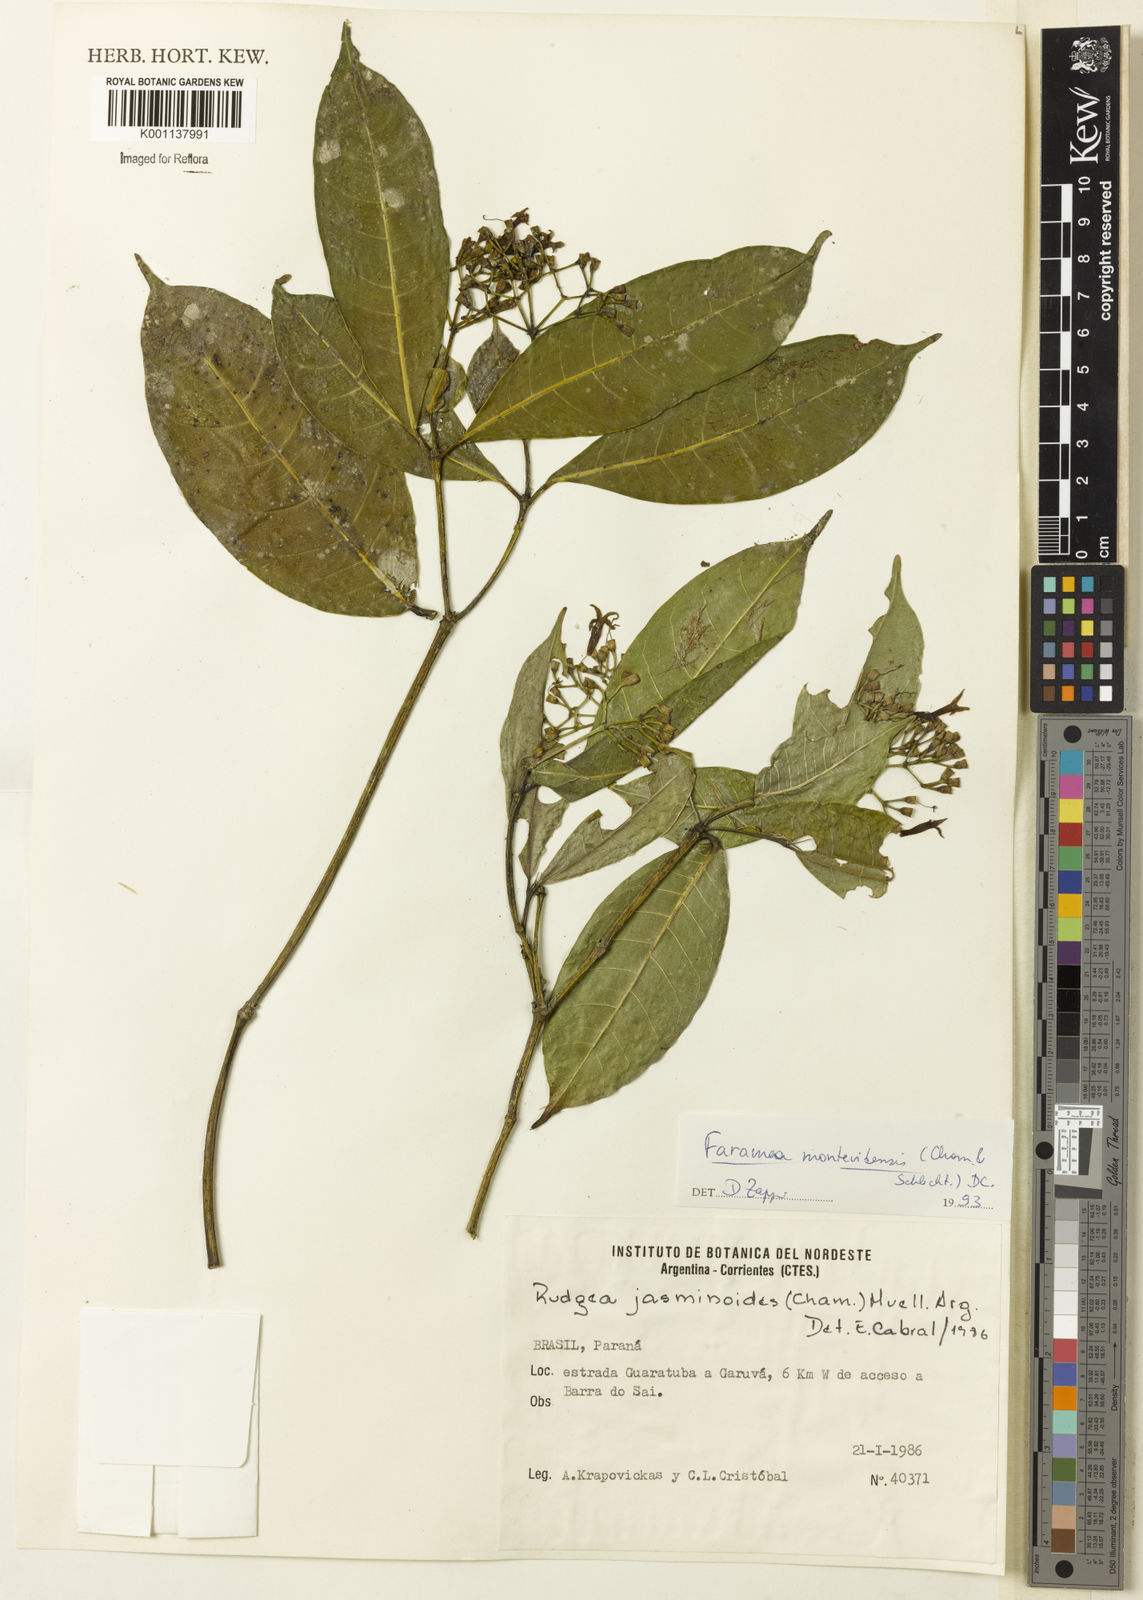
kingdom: Plantae
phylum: Tracheophyta
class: Magnoliopsida
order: Gentianales
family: Rubiaceae
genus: Faramea
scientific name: Faramea montevidensis
